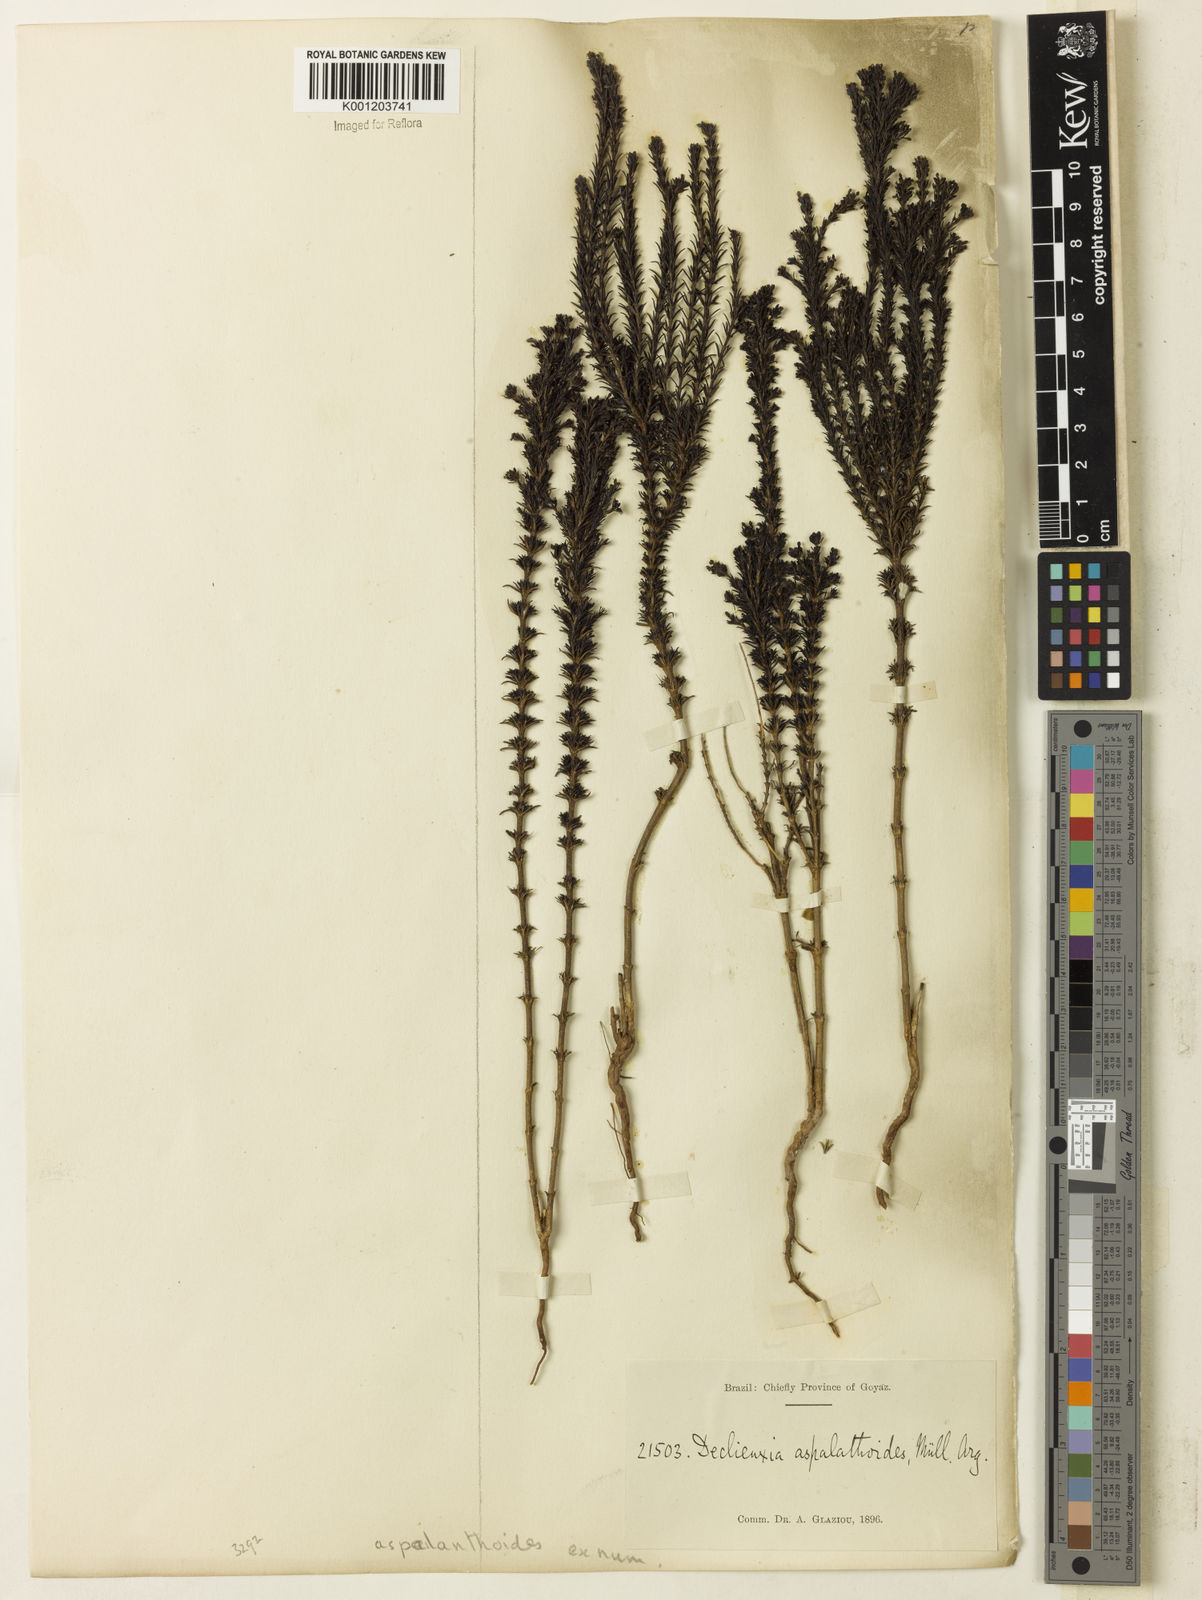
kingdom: Plantae
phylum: Tracheophyta
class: Magnoliopsida
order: Gentianales
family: Rubiaceae
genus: Declieuxia
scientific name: Declieuxia
